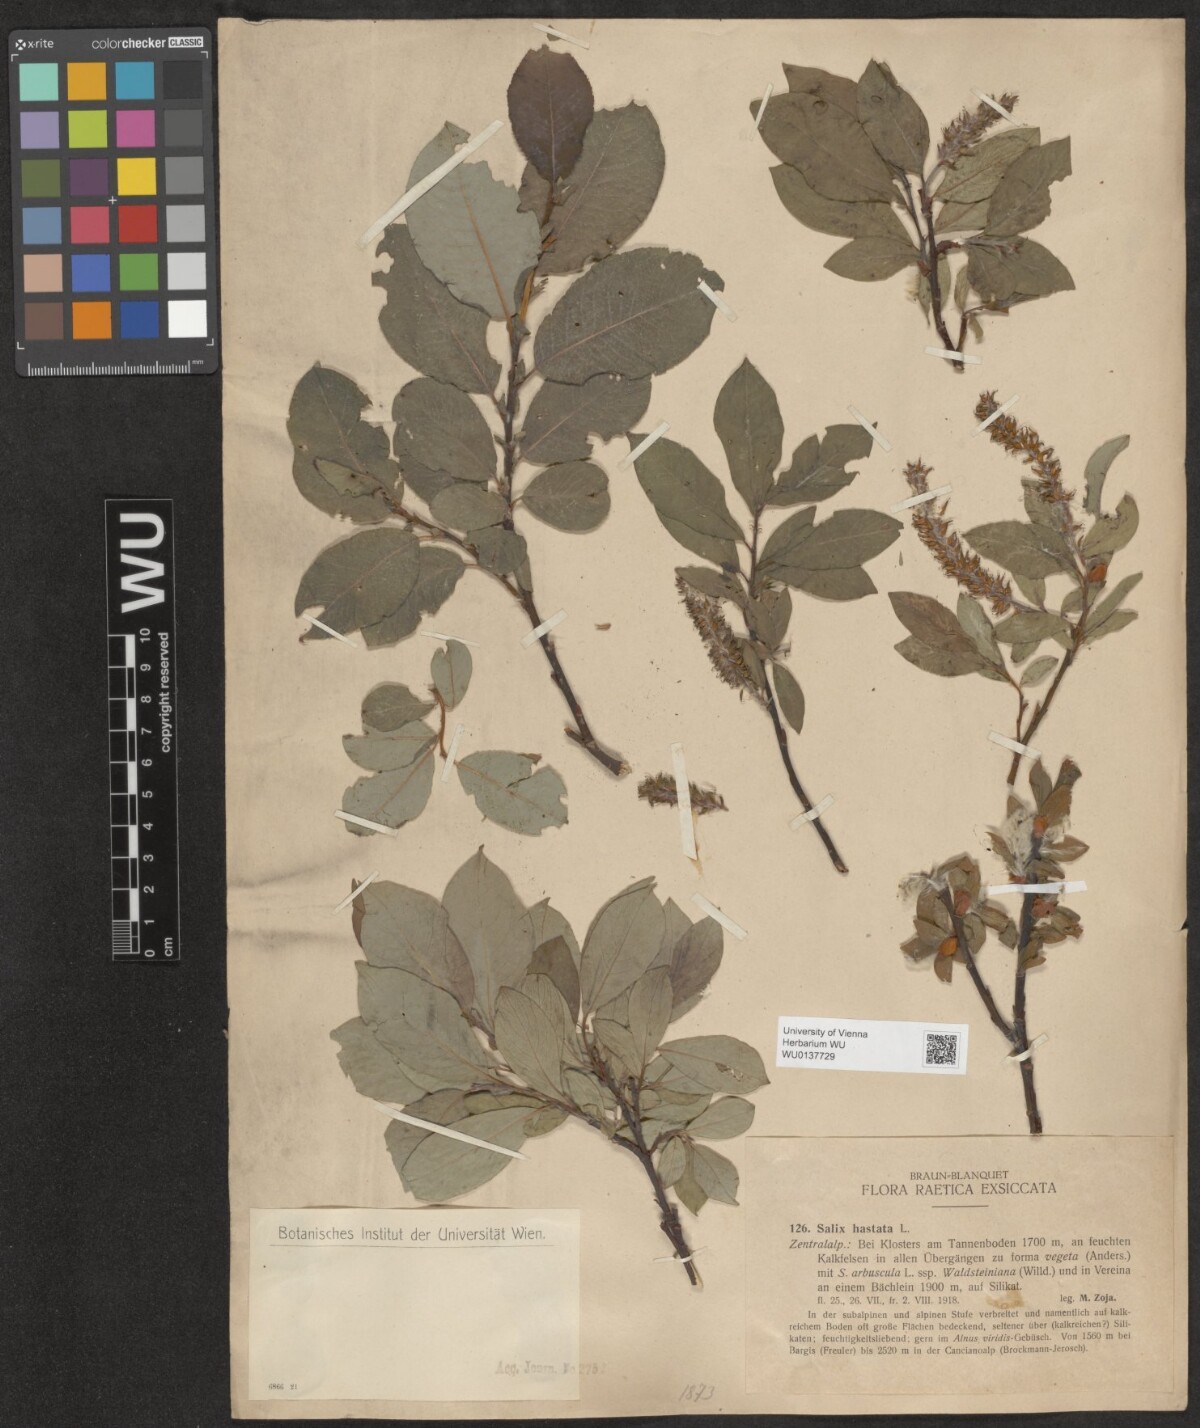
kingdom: Plantae
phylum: Tracheophyta
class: Magnoliopsida
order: Malpighiales
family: Salicaceae
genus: Salix
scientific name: Salix hastata
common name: Halberd willow
